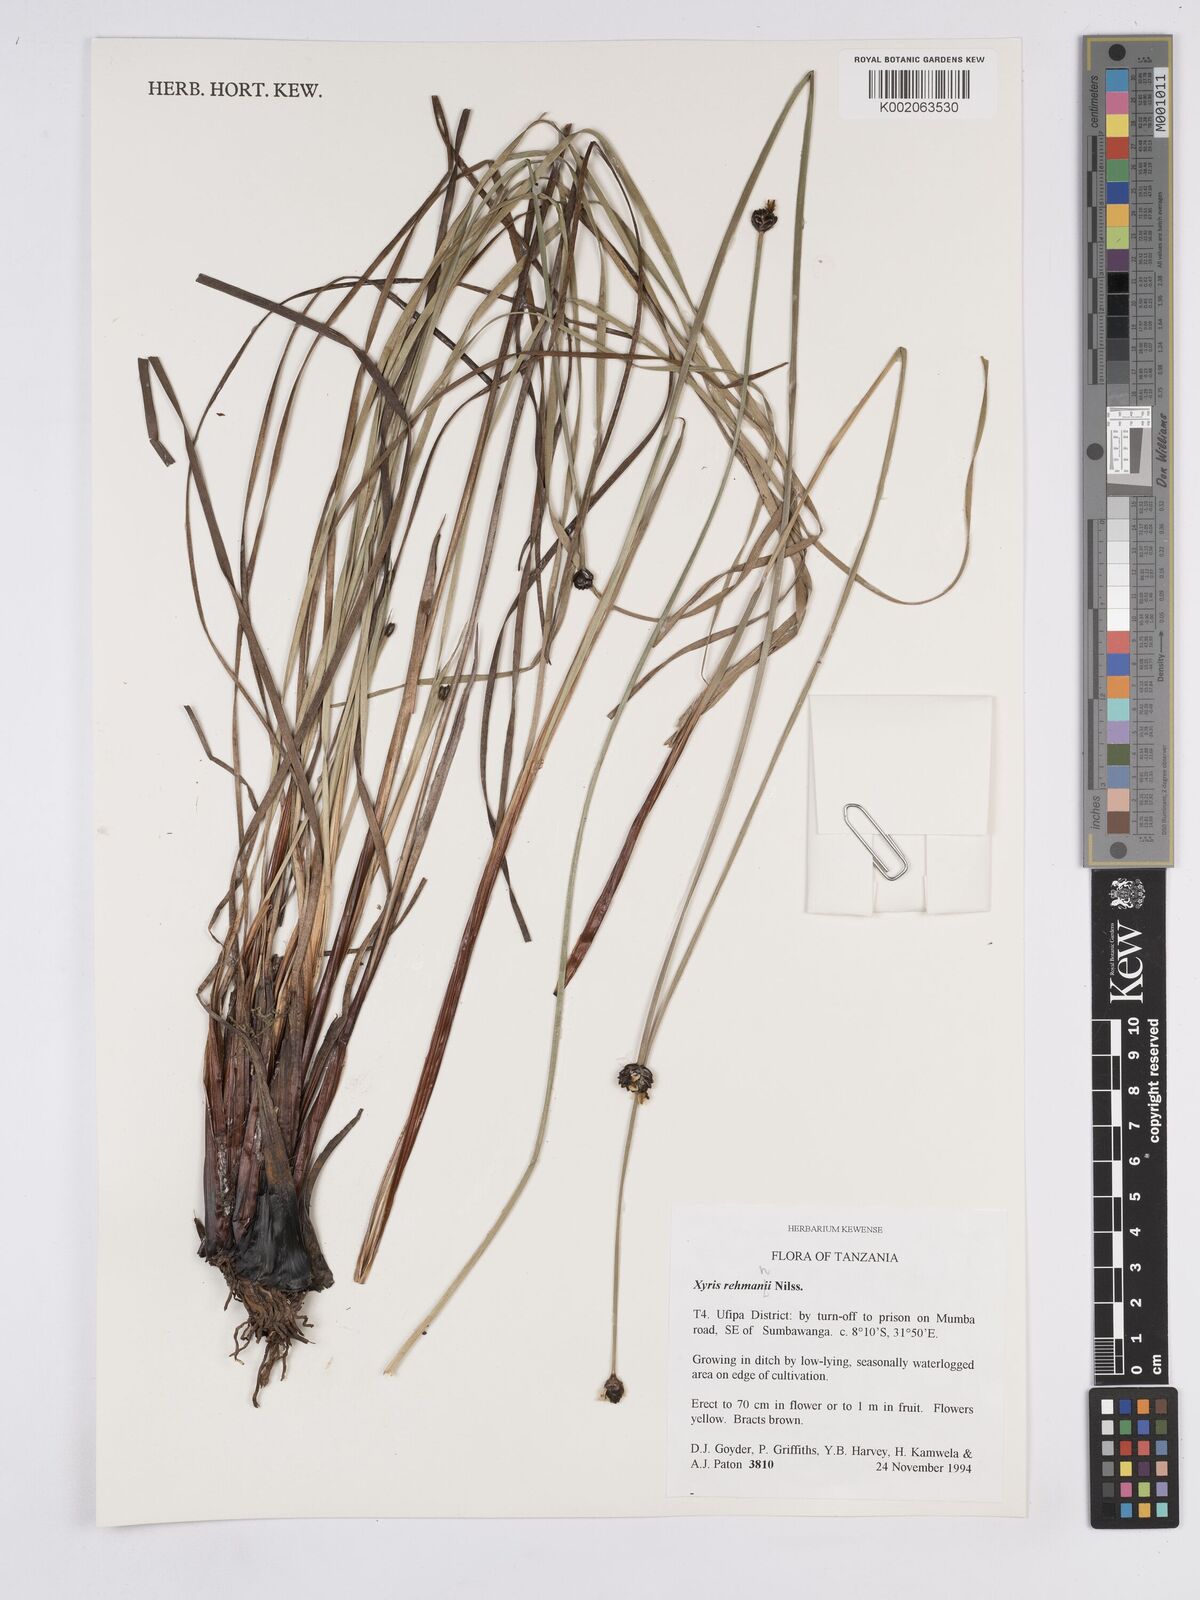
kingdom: Plantae
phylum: Tracheophyta
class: Liliopsida
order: Poales
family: Xyridaceae
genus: Xyris
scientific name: Xyris rehmannii
